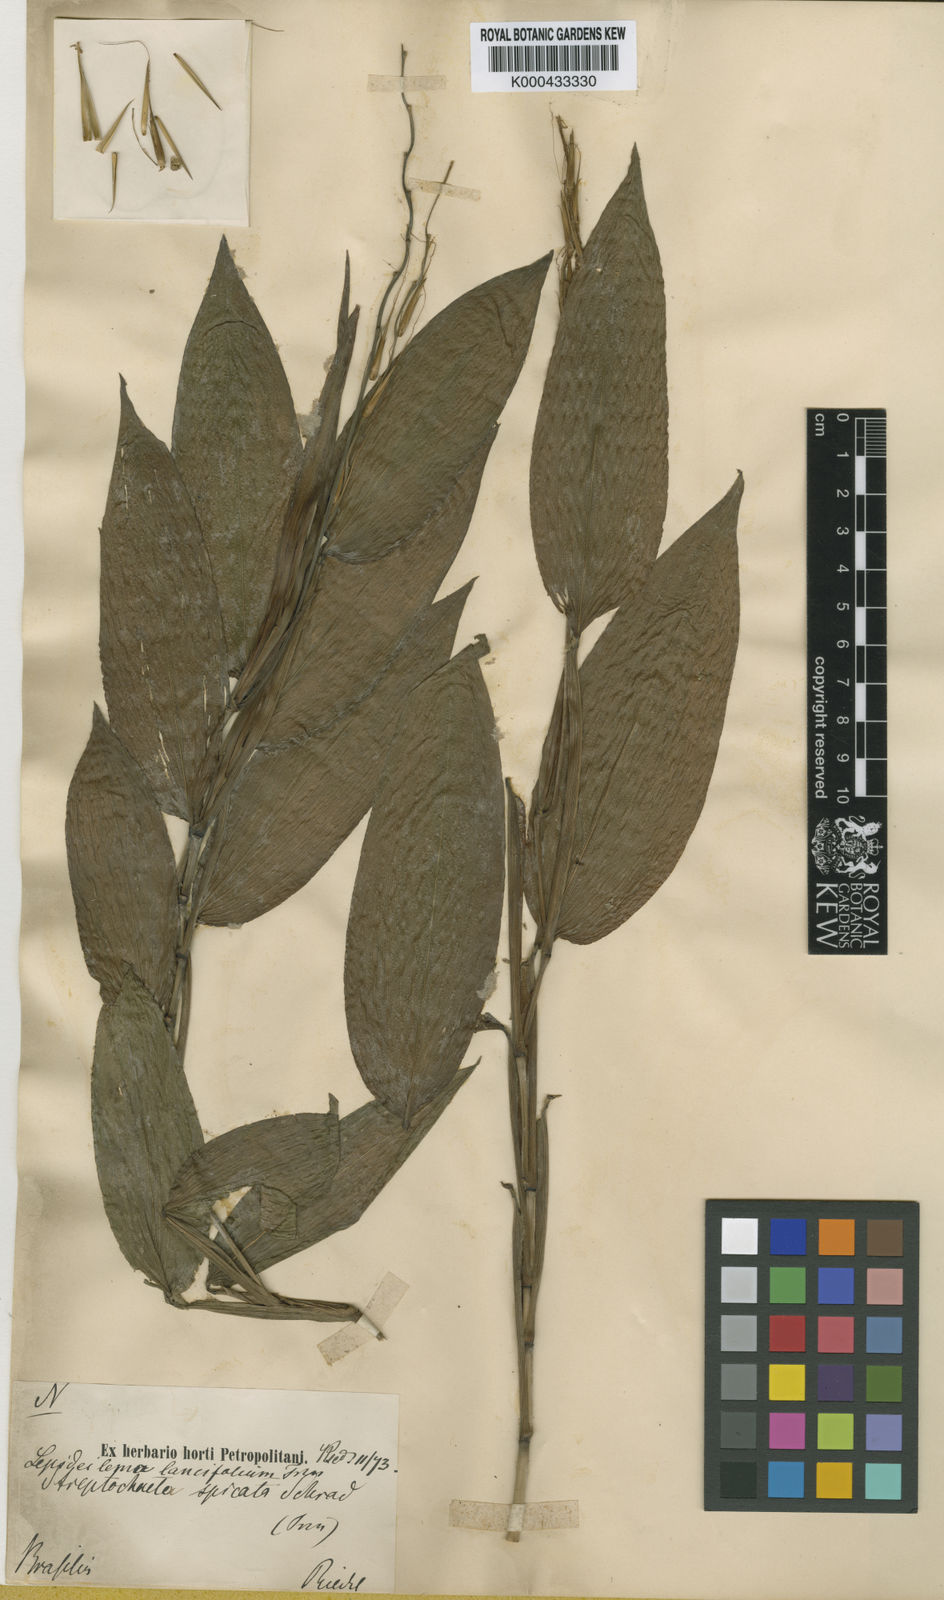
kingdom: Plantae
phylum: Tracheophyta
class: Liliopsida
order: Poales
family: Poaceae
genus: Streptochaeta
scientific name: Streptochaeta spicata
